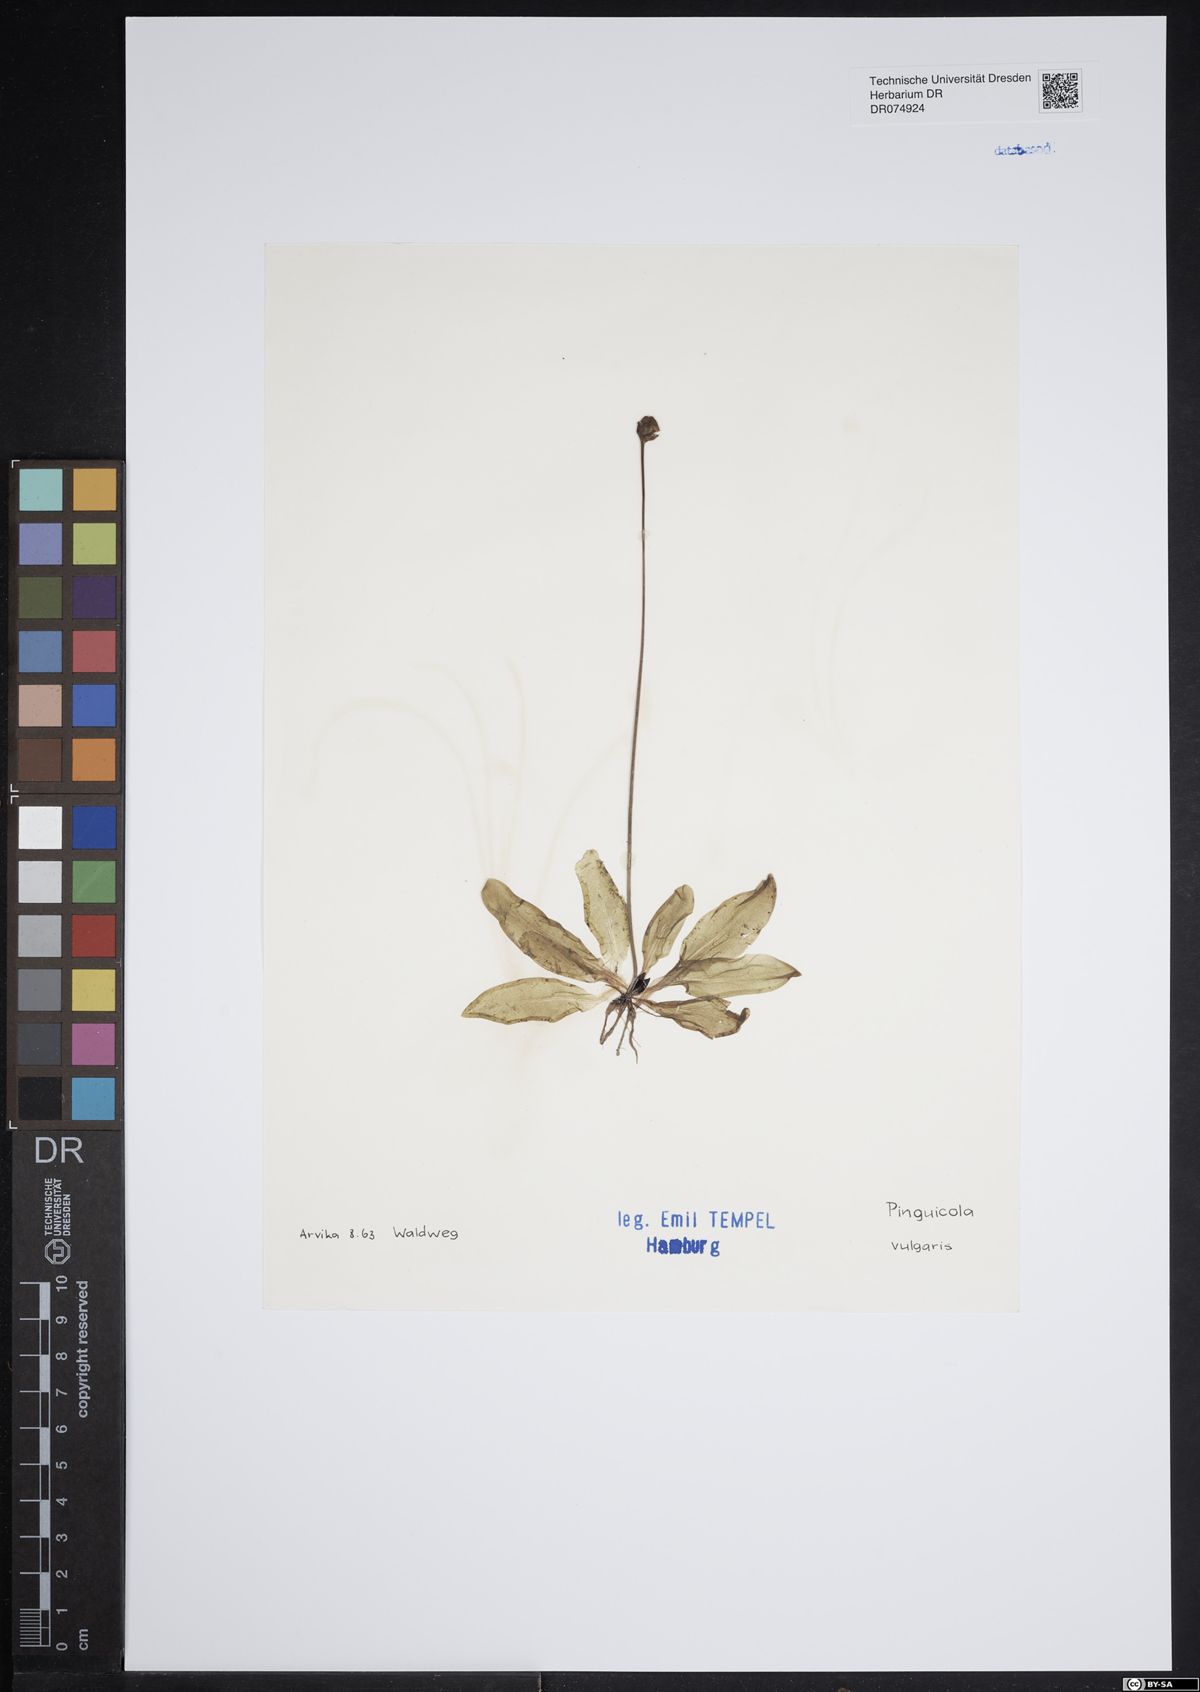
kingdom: Plantae
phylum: Tracheophyta
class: Magnoliopsida
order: Lamiales
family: Lentibulariaceae
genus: Pinguicula
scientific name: Pinguicula vulgaris
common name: Common butterwort
